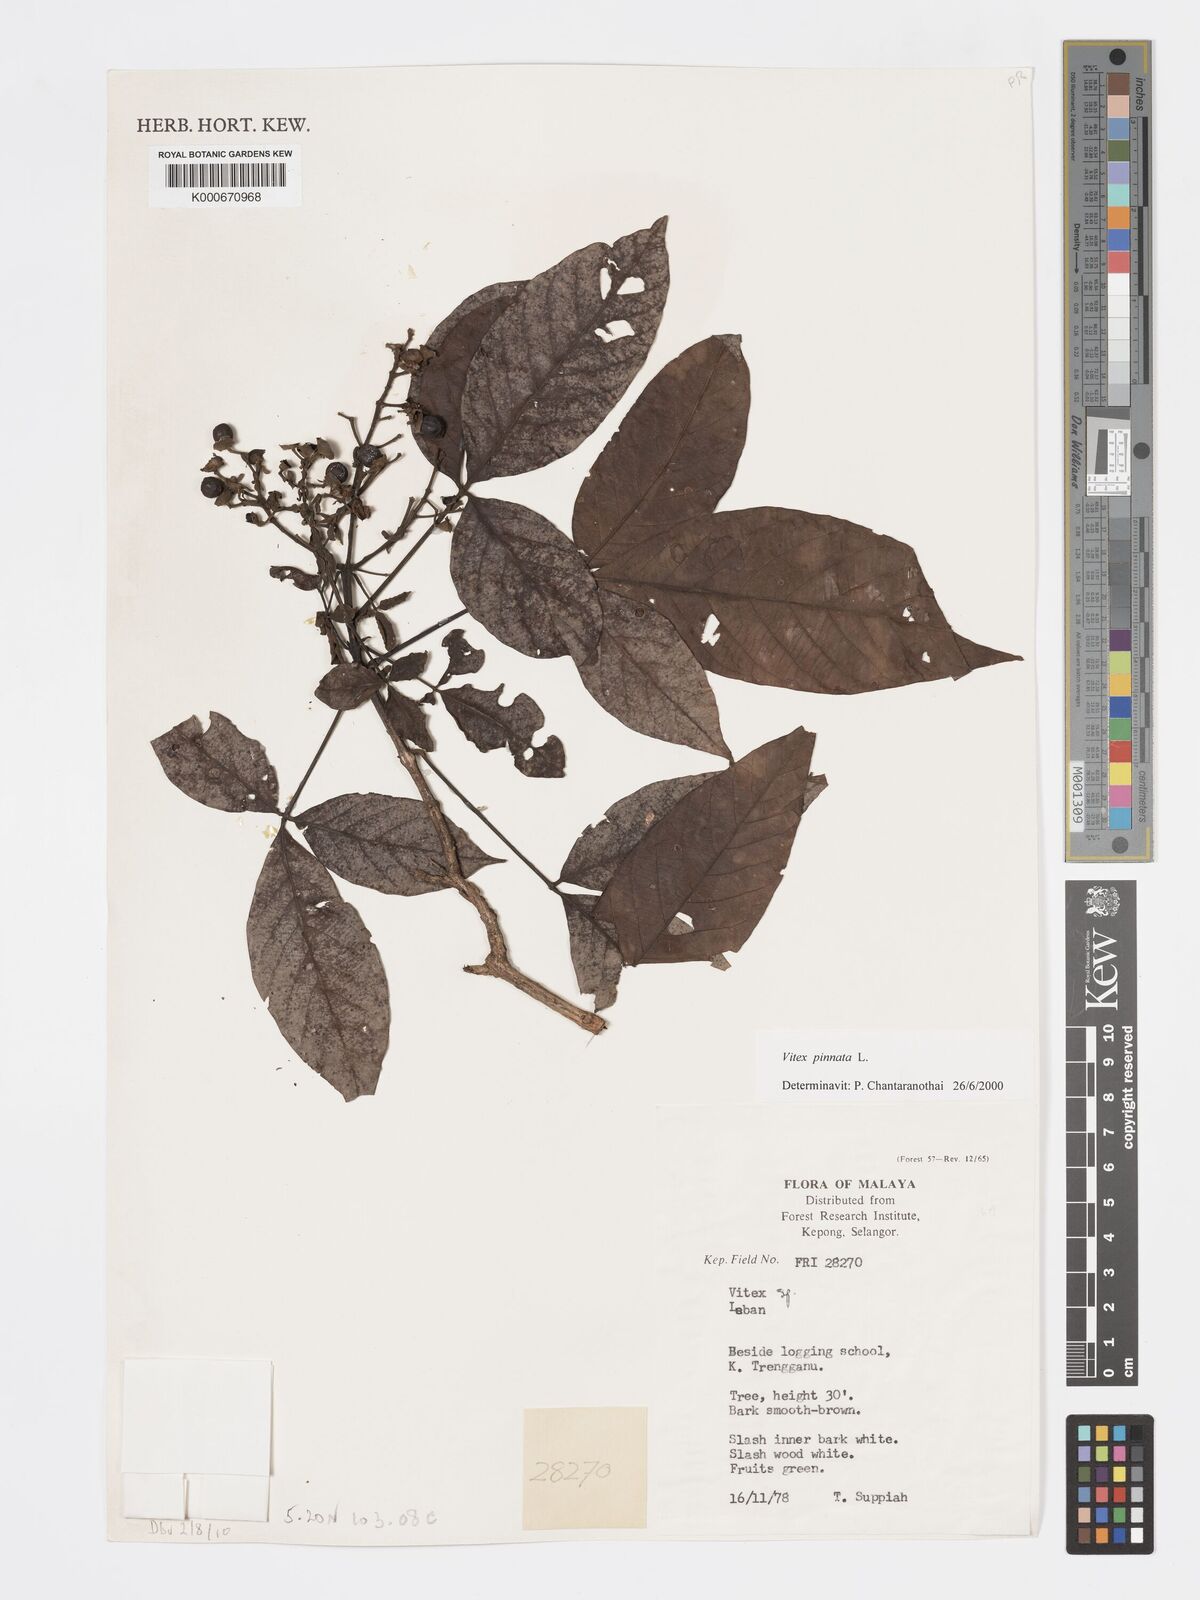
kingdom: Plantae
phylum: Tracheophyta
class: Magnoliopsida
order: Lamiales
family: Lamiaceae
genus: Vitex
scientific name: Vitex pinnata
